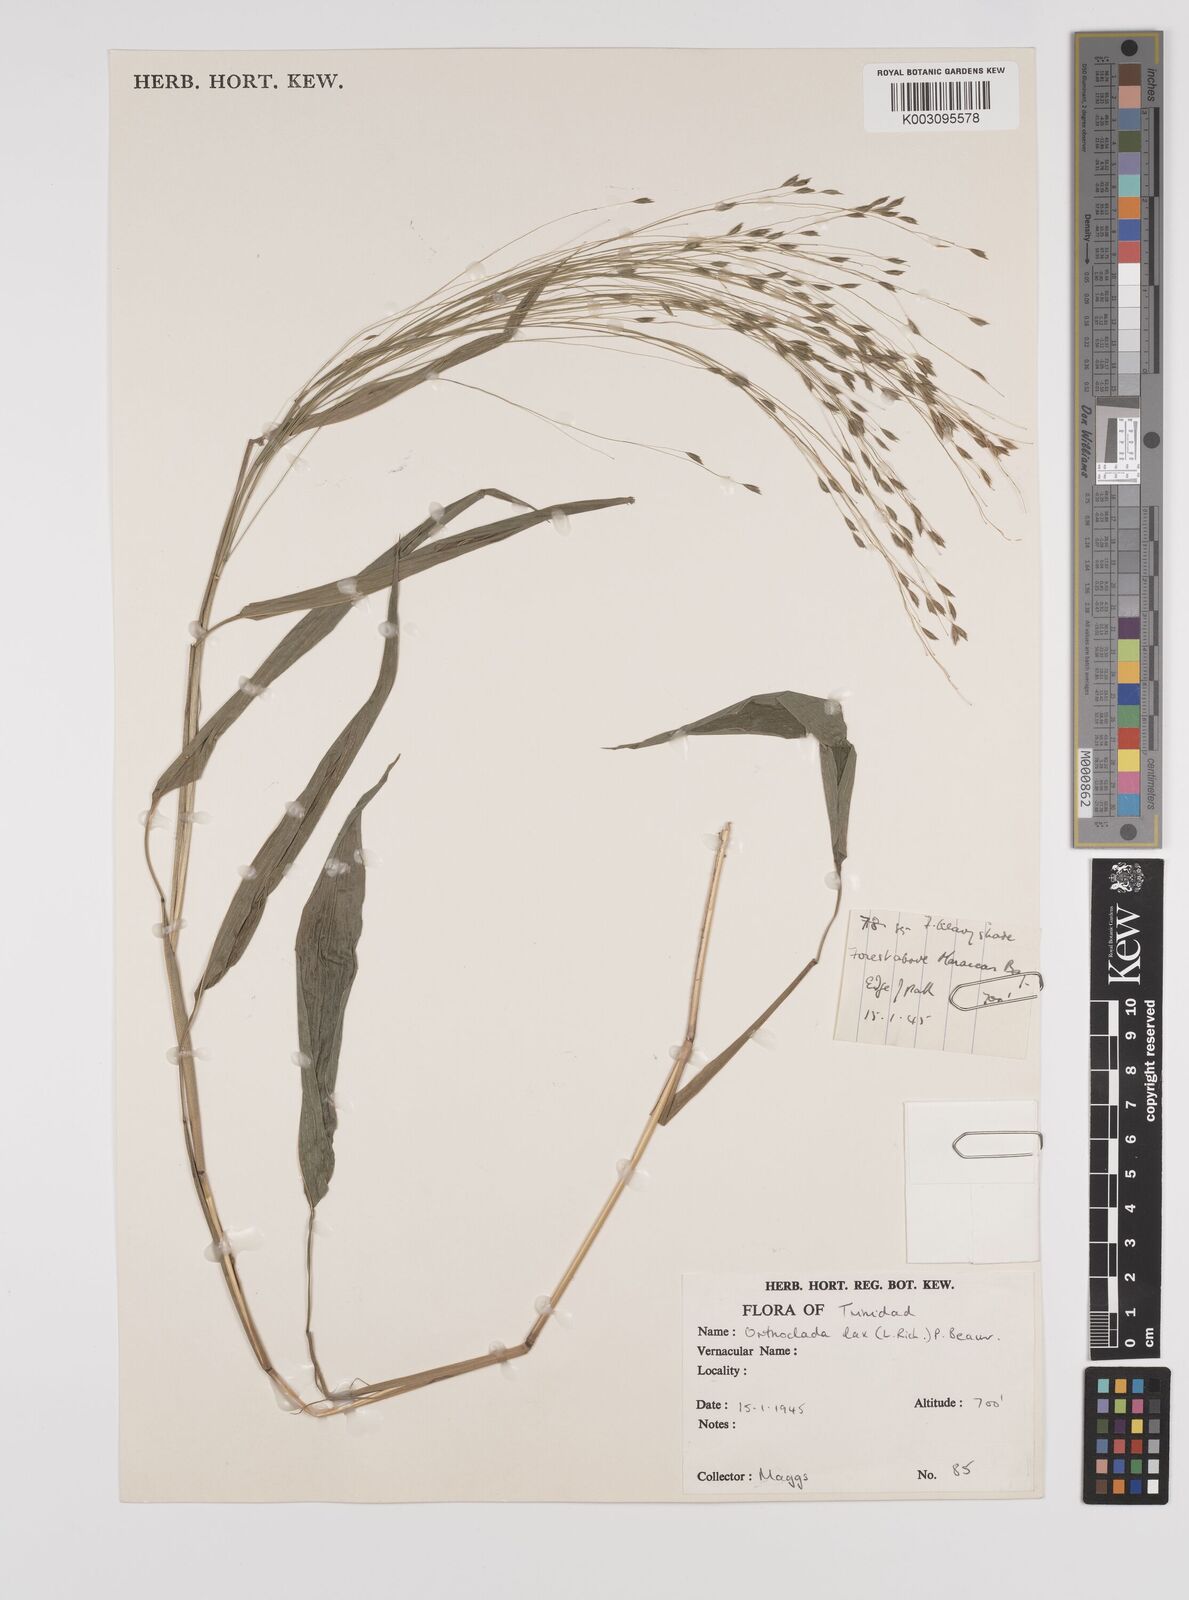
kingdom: Plantae
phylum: Tracheophyta
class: Liliopsida
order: Poales
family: Poaceae
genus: Orthoclada
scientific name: Orthoclada laxa
